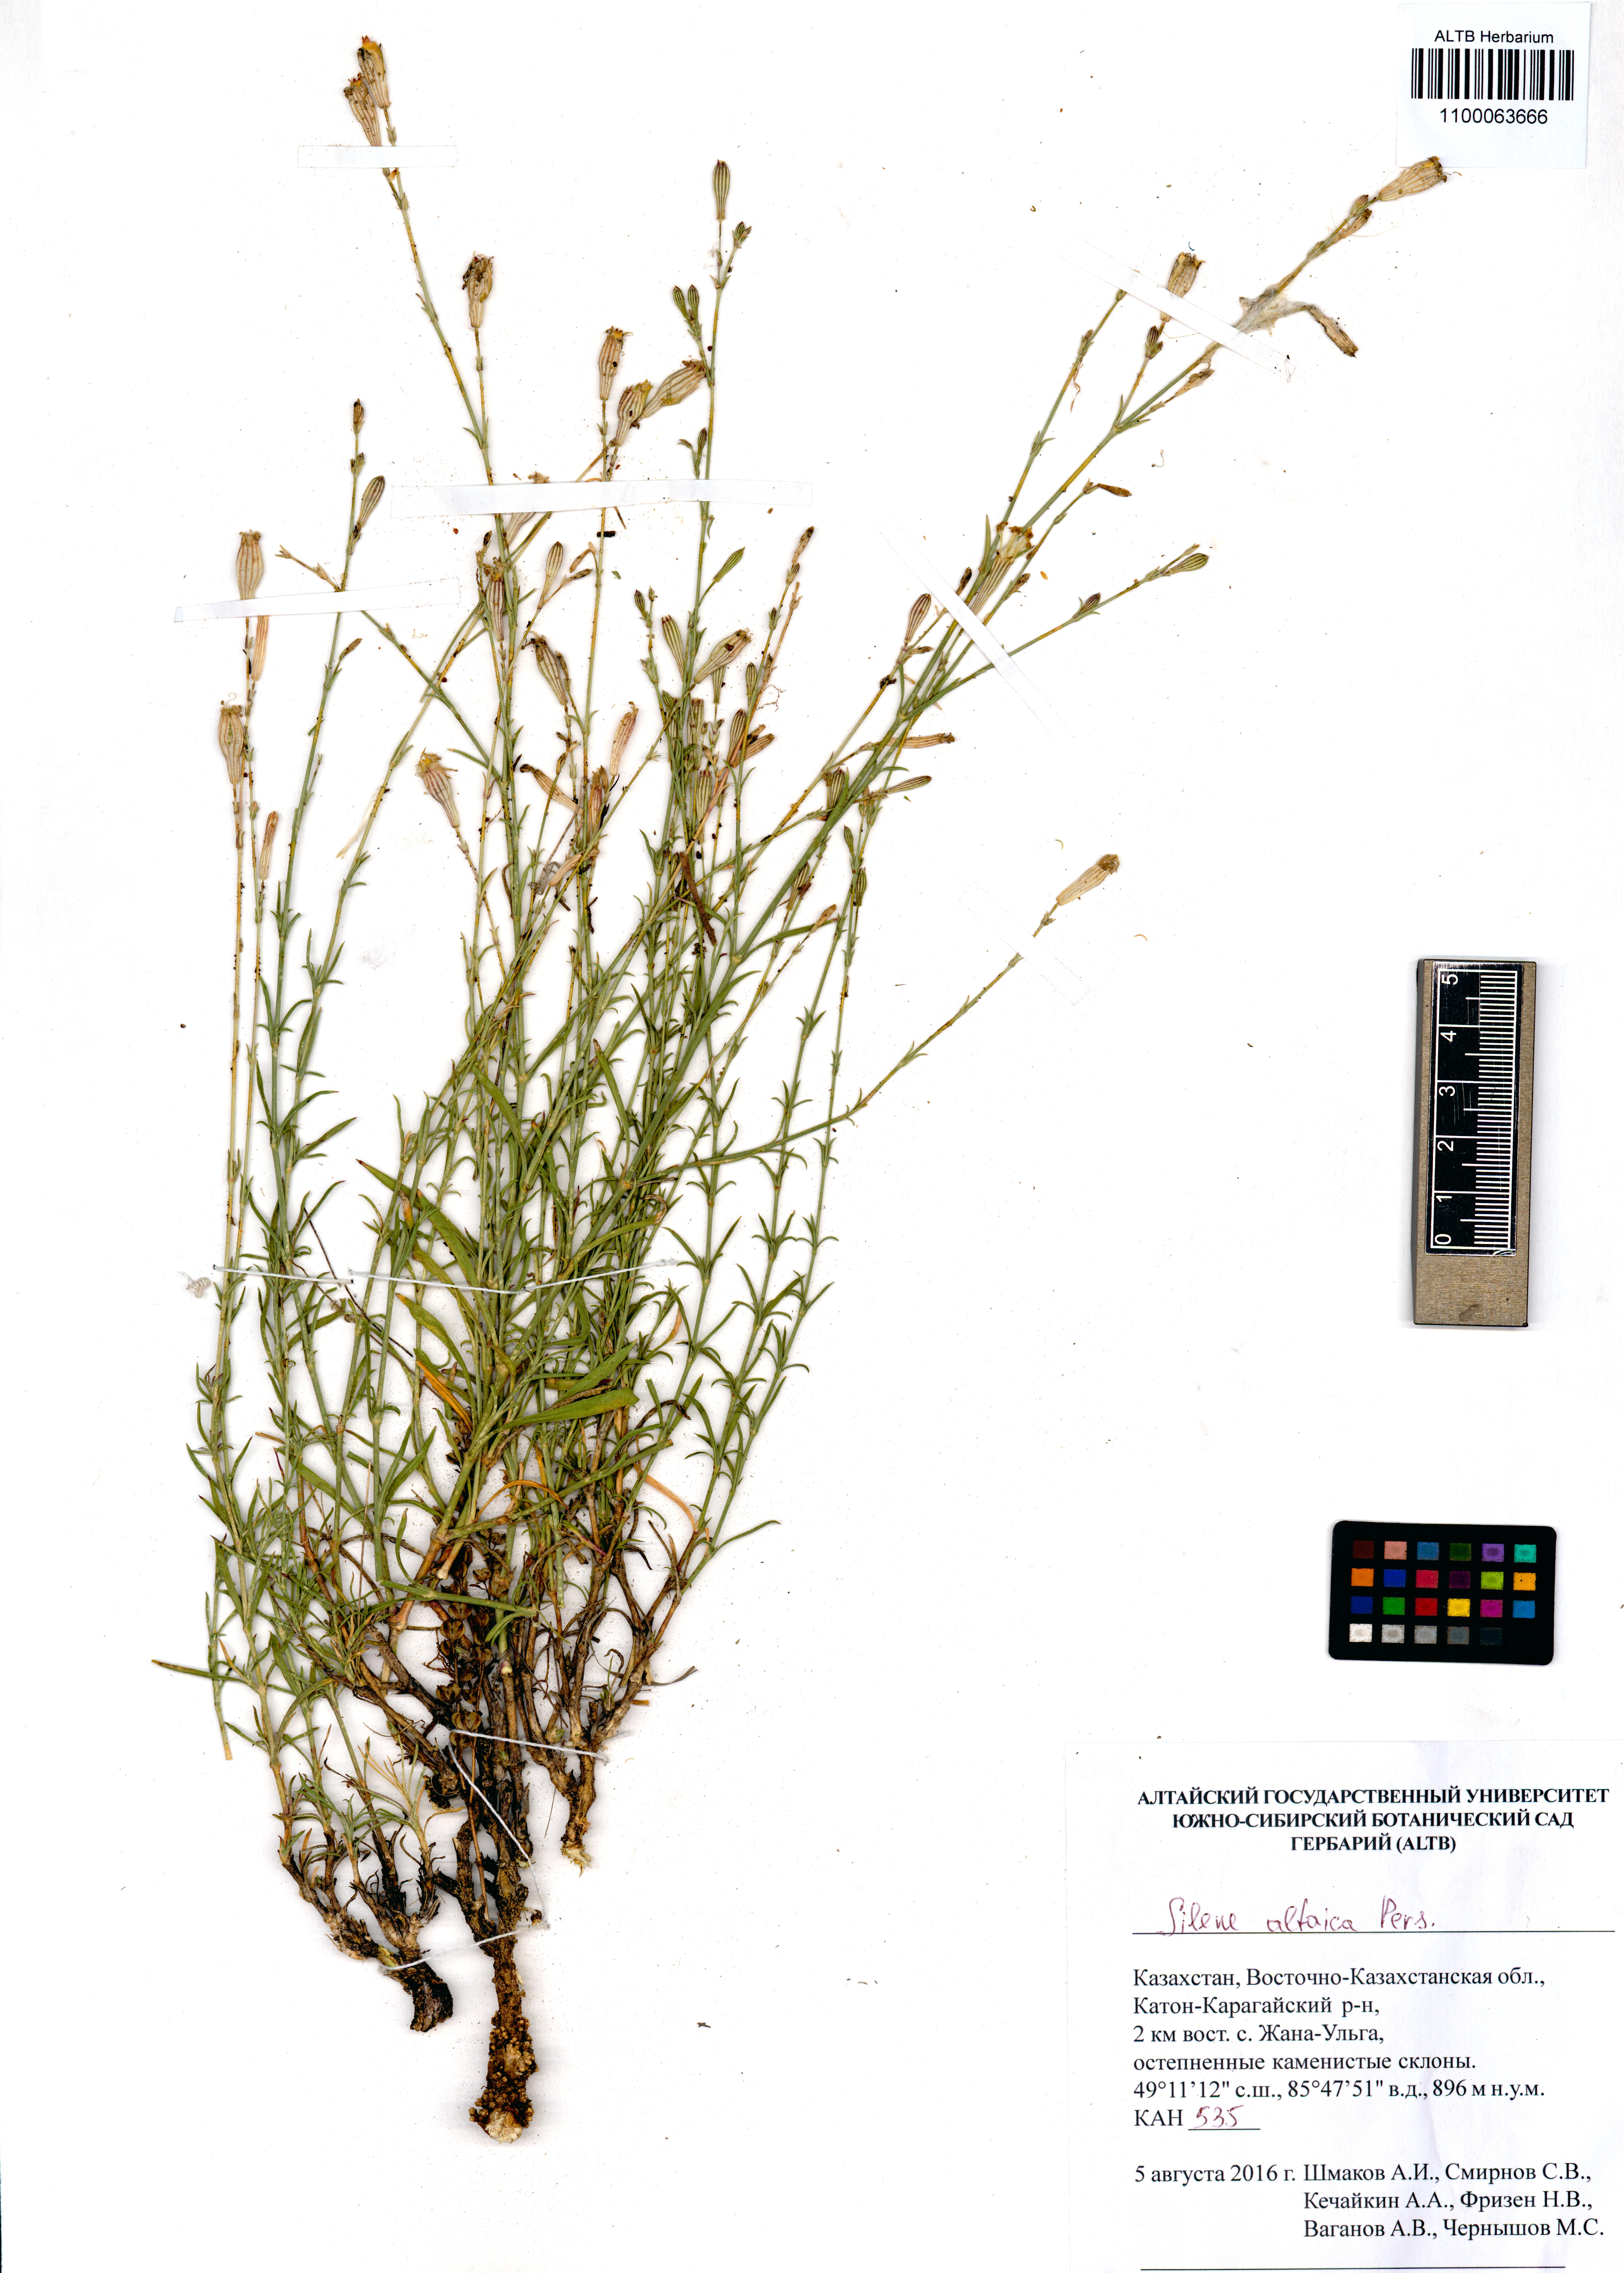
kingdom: Plantae
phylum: Tracheophyta
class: Magnoliopsida
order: Caryophyllales
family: Caryophyllaceae
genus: Silene
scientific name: Silene altaica
